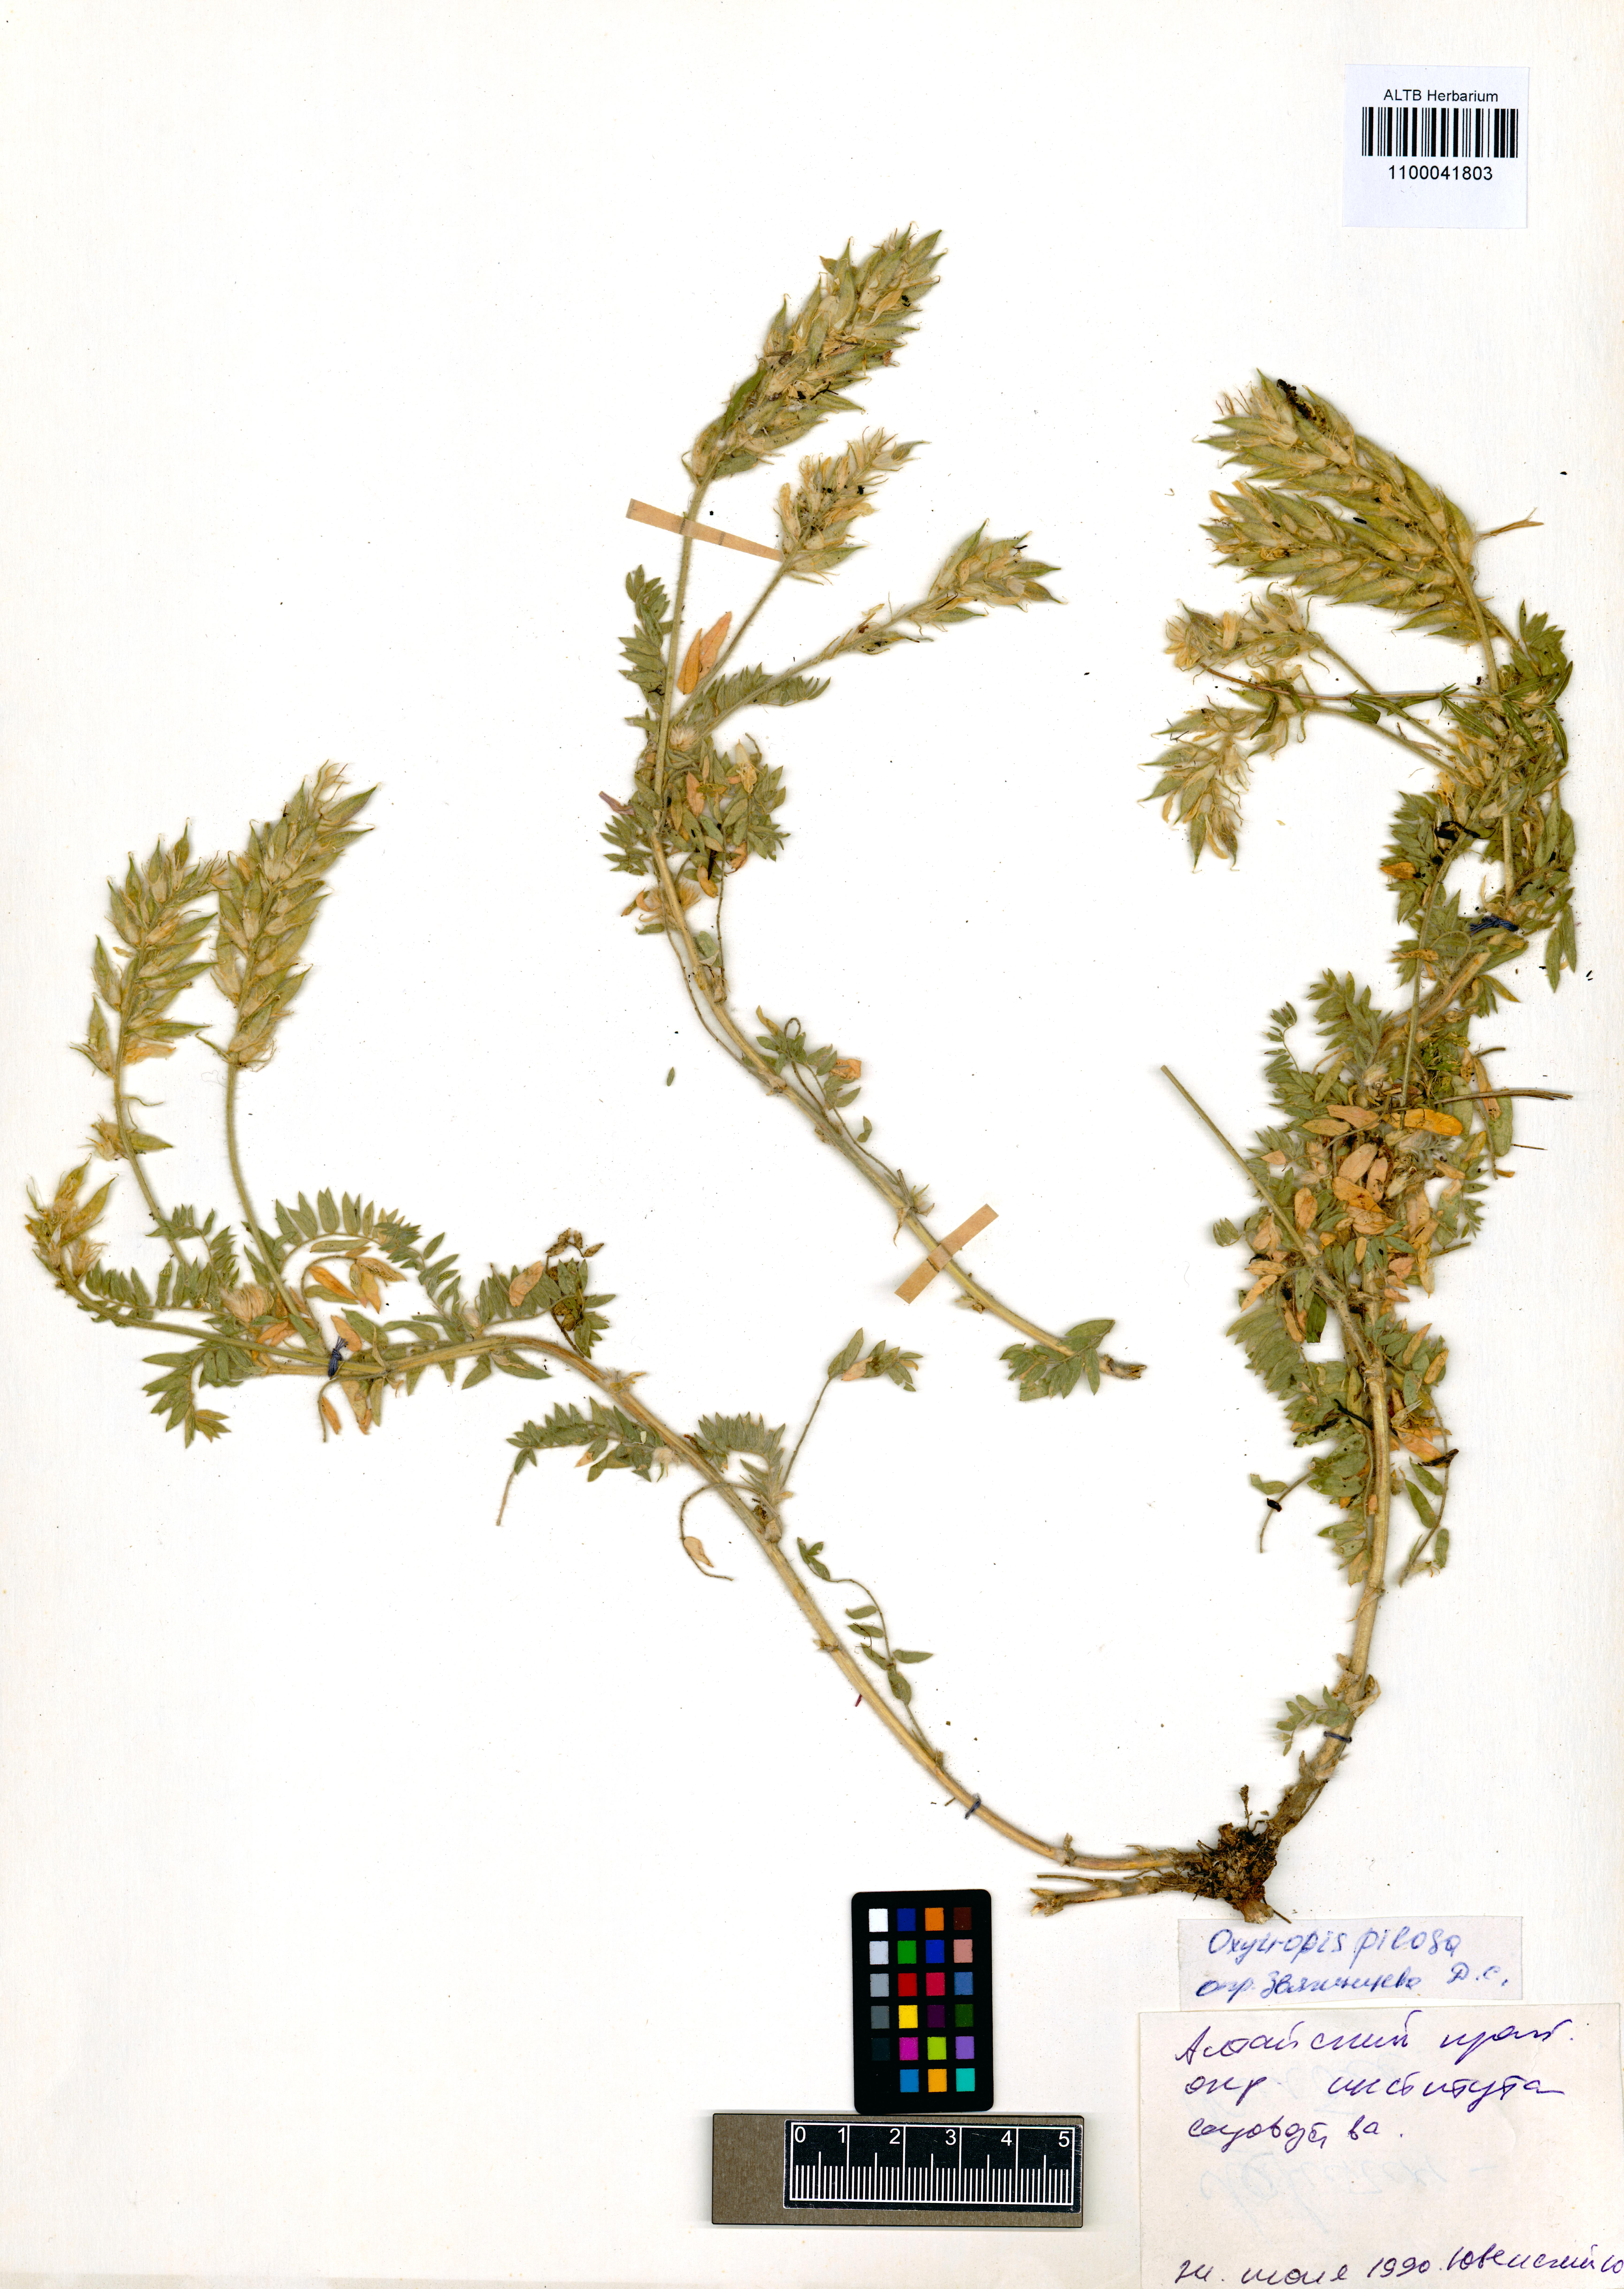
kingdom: Plantae
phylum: Tracheophyta
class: Magnoliopsida
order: Fabales
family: Fabaceae
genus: Oxytropis
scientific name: Oxytropis pilosa
